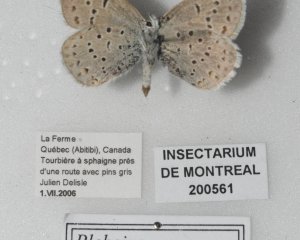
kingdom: Animalia
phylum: Arthropoda
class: Insecta
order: Lepidoptera
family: Lycaenidae
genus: Plebejus
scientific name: Plebejus saepiolus
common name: Greenish Blue
